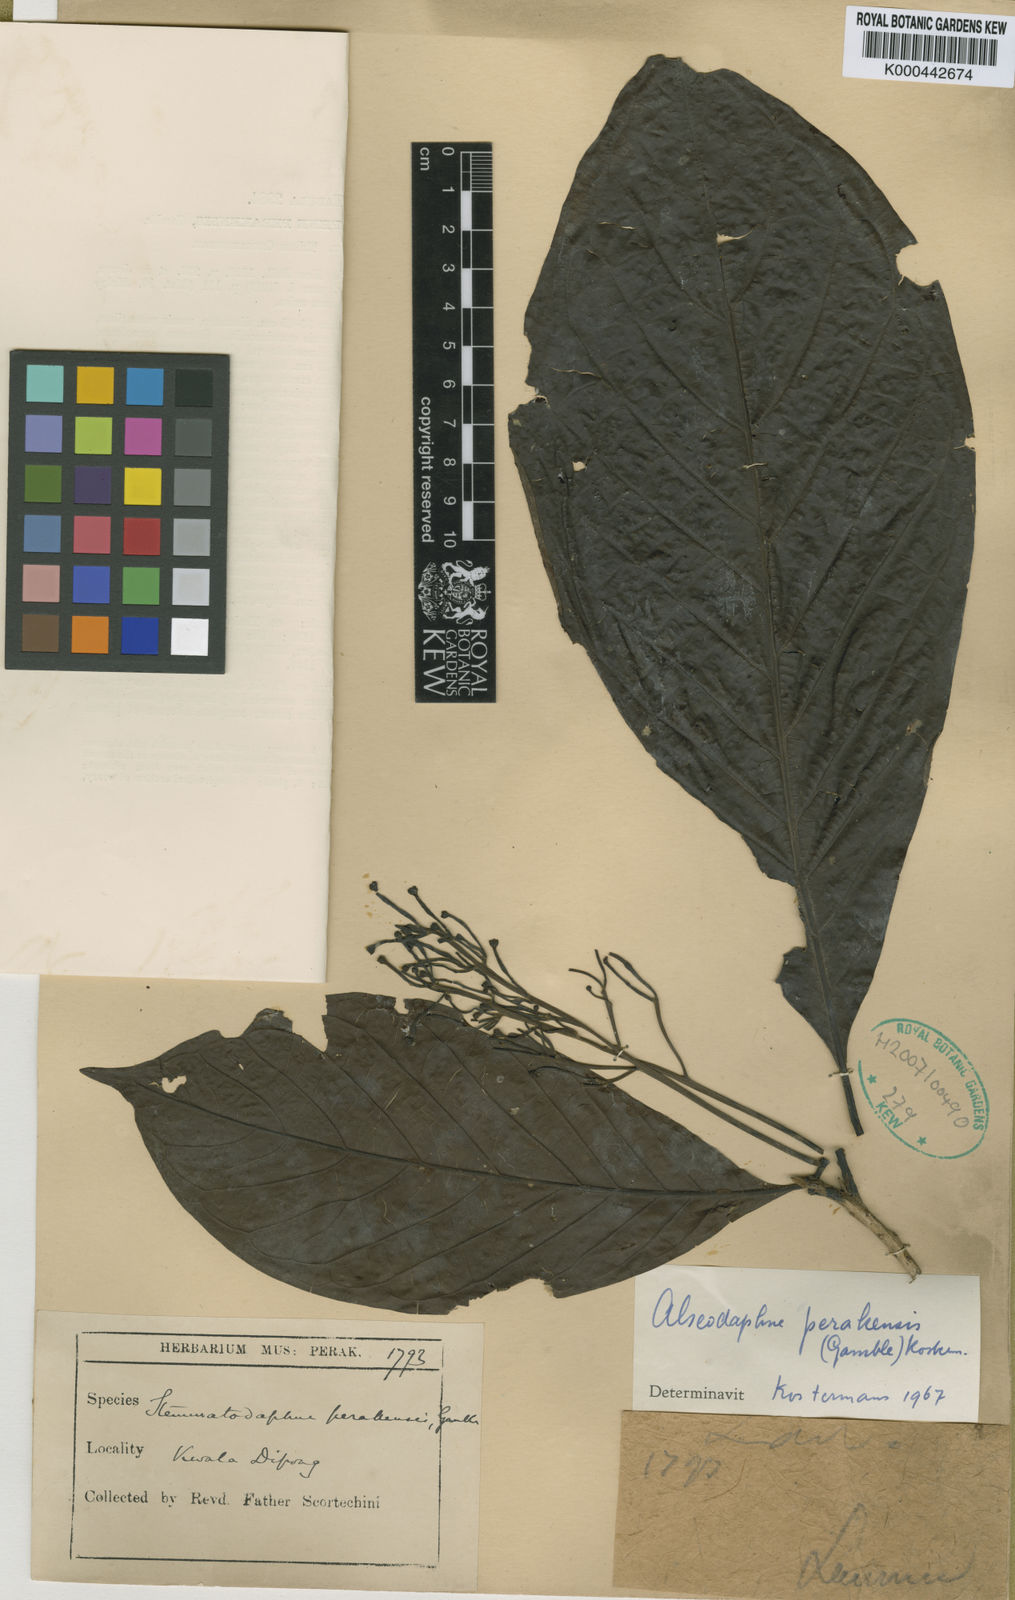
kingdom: Plantae
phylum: Tracheophyta
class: Magnoliopsida
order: Laurales
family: Lauraceae
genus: Alseodaphne
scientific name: Alseodaphne perakensis
